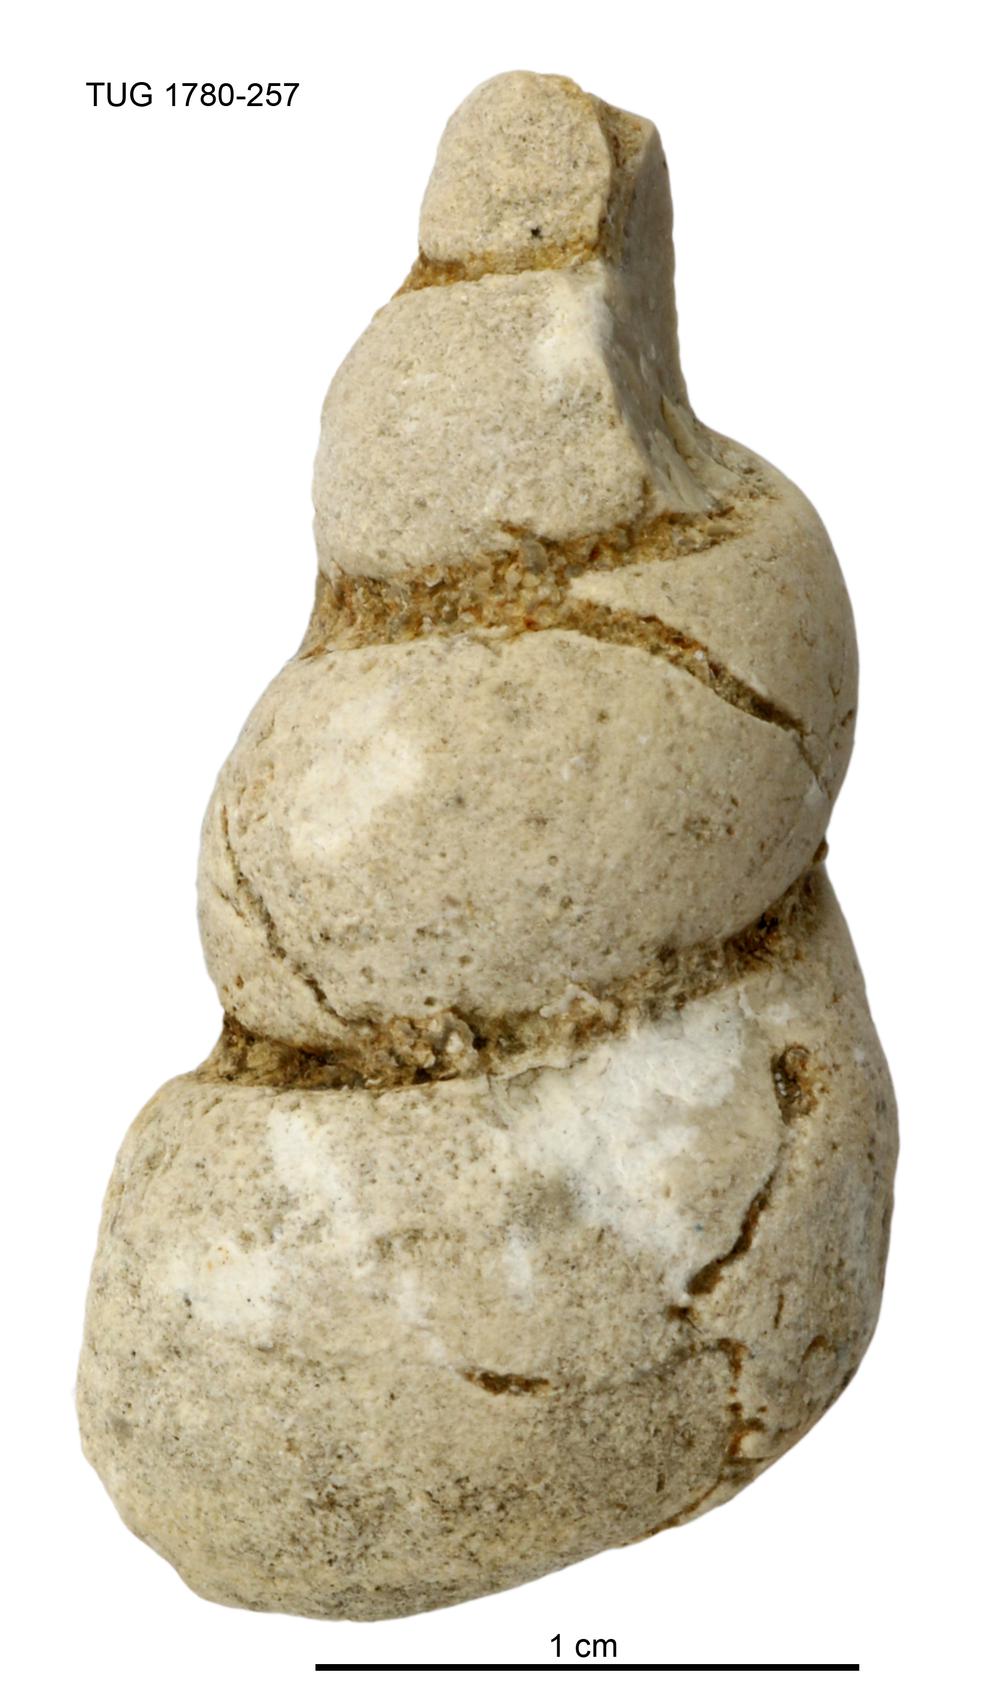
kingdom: Animalia
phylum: Mollusca
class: Gastropoda
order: Pleurotomariida
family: Murchisoniidae
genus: Hormotoma
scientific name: Hormotoma
